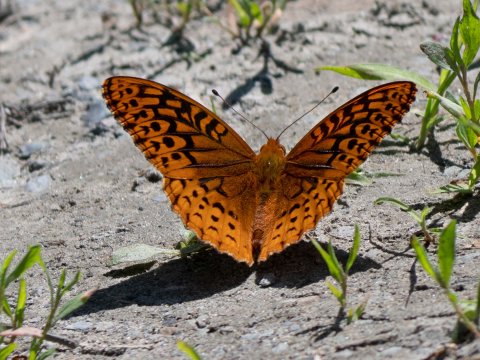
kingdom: Animalia
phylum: Arthropoda
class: Insecta
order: Lepidoptera
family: Nymphalidae
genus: Speyeria
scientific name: Speyeria cybele
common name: Great Spangled Fritillary
